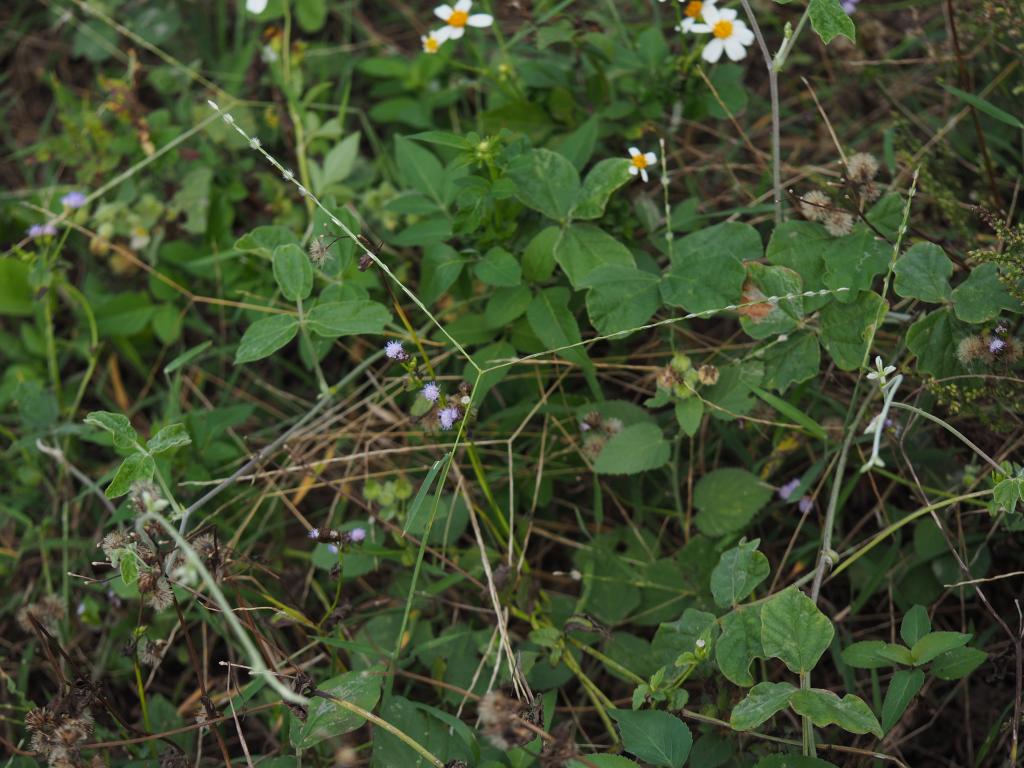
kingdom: Plantae
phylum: Tracheophyta
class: Liliopsida
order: Poales
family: Poaceae
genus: Digitaria
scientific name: Digitaria heterantha
